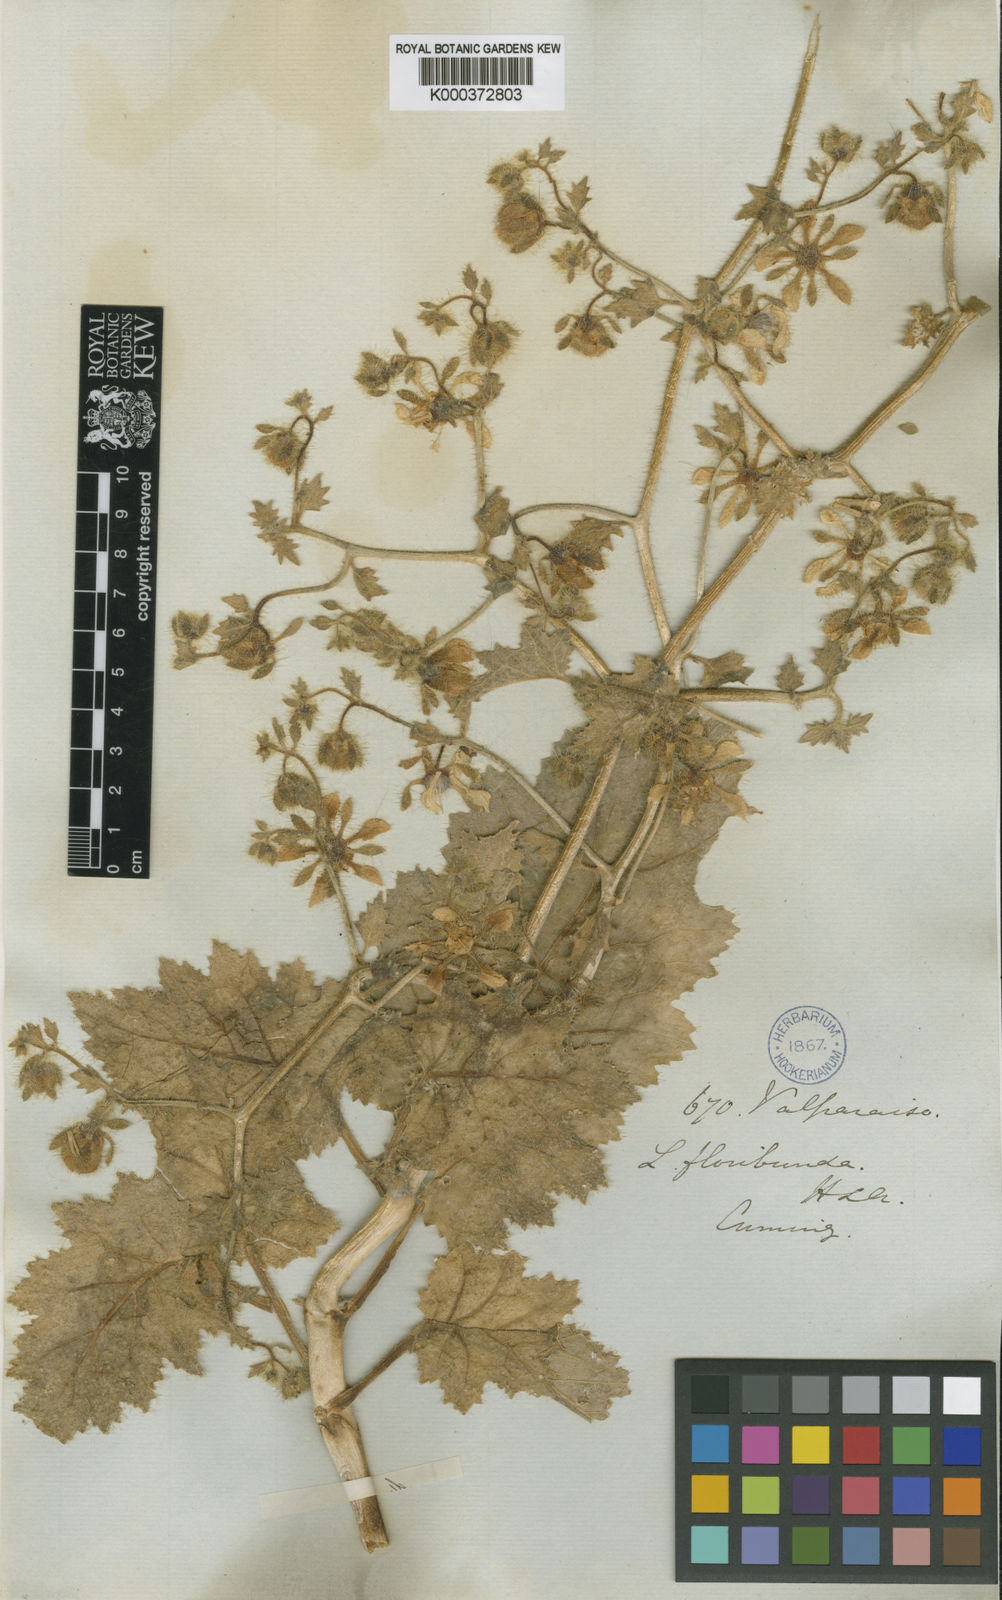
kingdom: Plantae
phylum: Tracheophyta
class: Magnoliopsida
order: Cornales
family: Loasaceae
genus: Loasa
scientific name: Loasa floribunda
